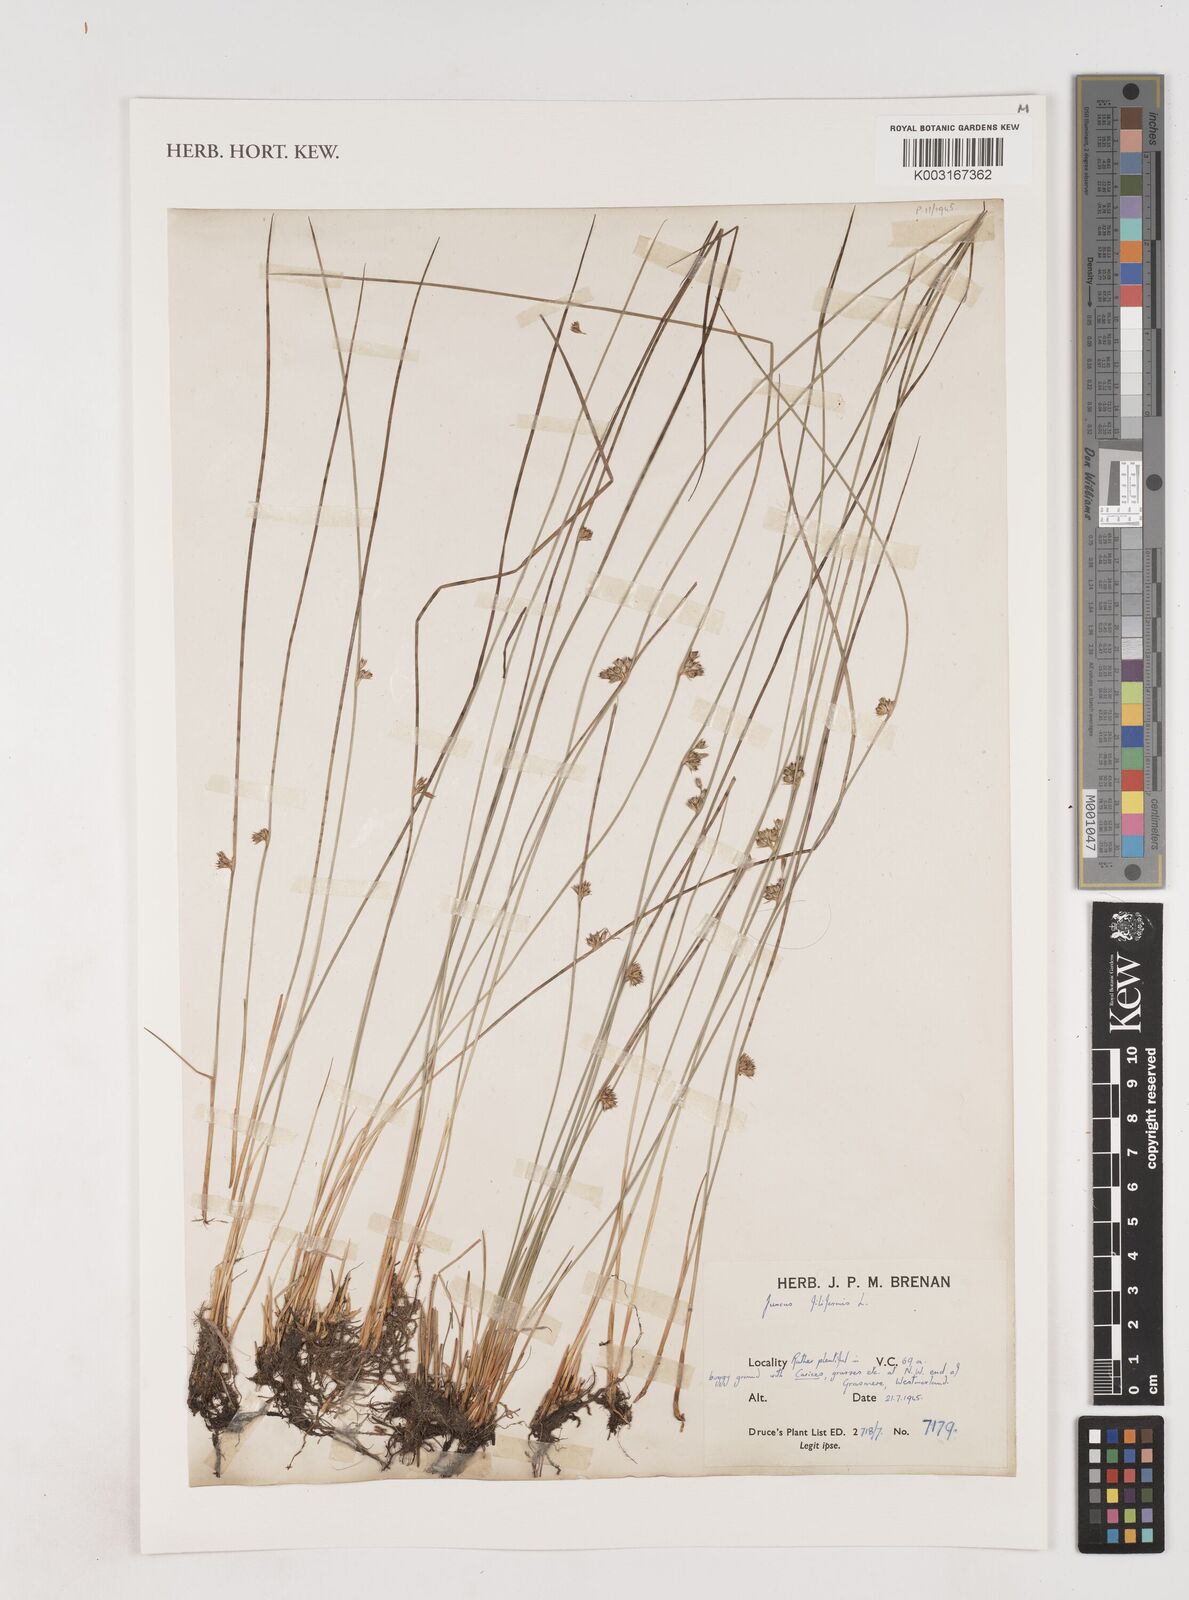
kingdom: Plantae
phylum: Tracheophyta
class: Liliopsida
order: Poales
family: Juncaceae
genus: Juncus
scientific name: Juncus filiformis
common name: Thread rush
